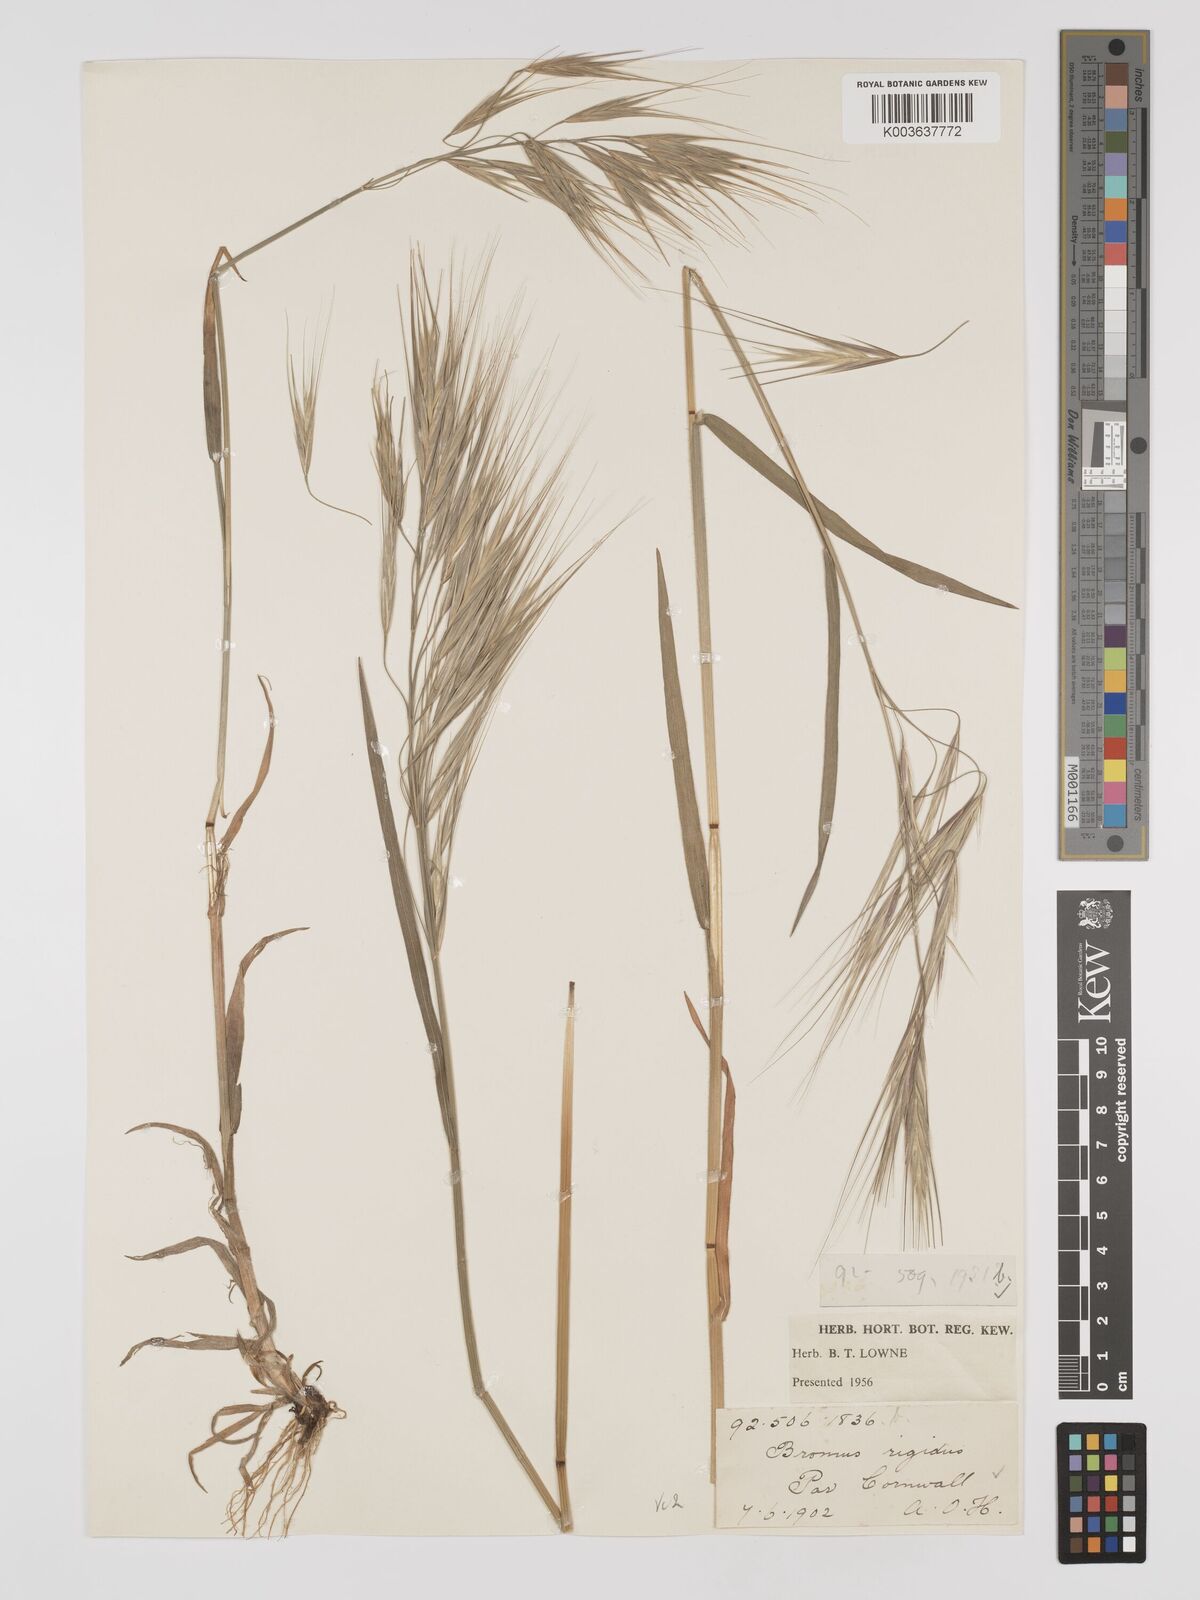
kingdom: Plantae
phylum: Tracheophyta
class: Liliopsida
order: Poales
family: Poaceae
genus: Bromus
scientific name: Bromus
